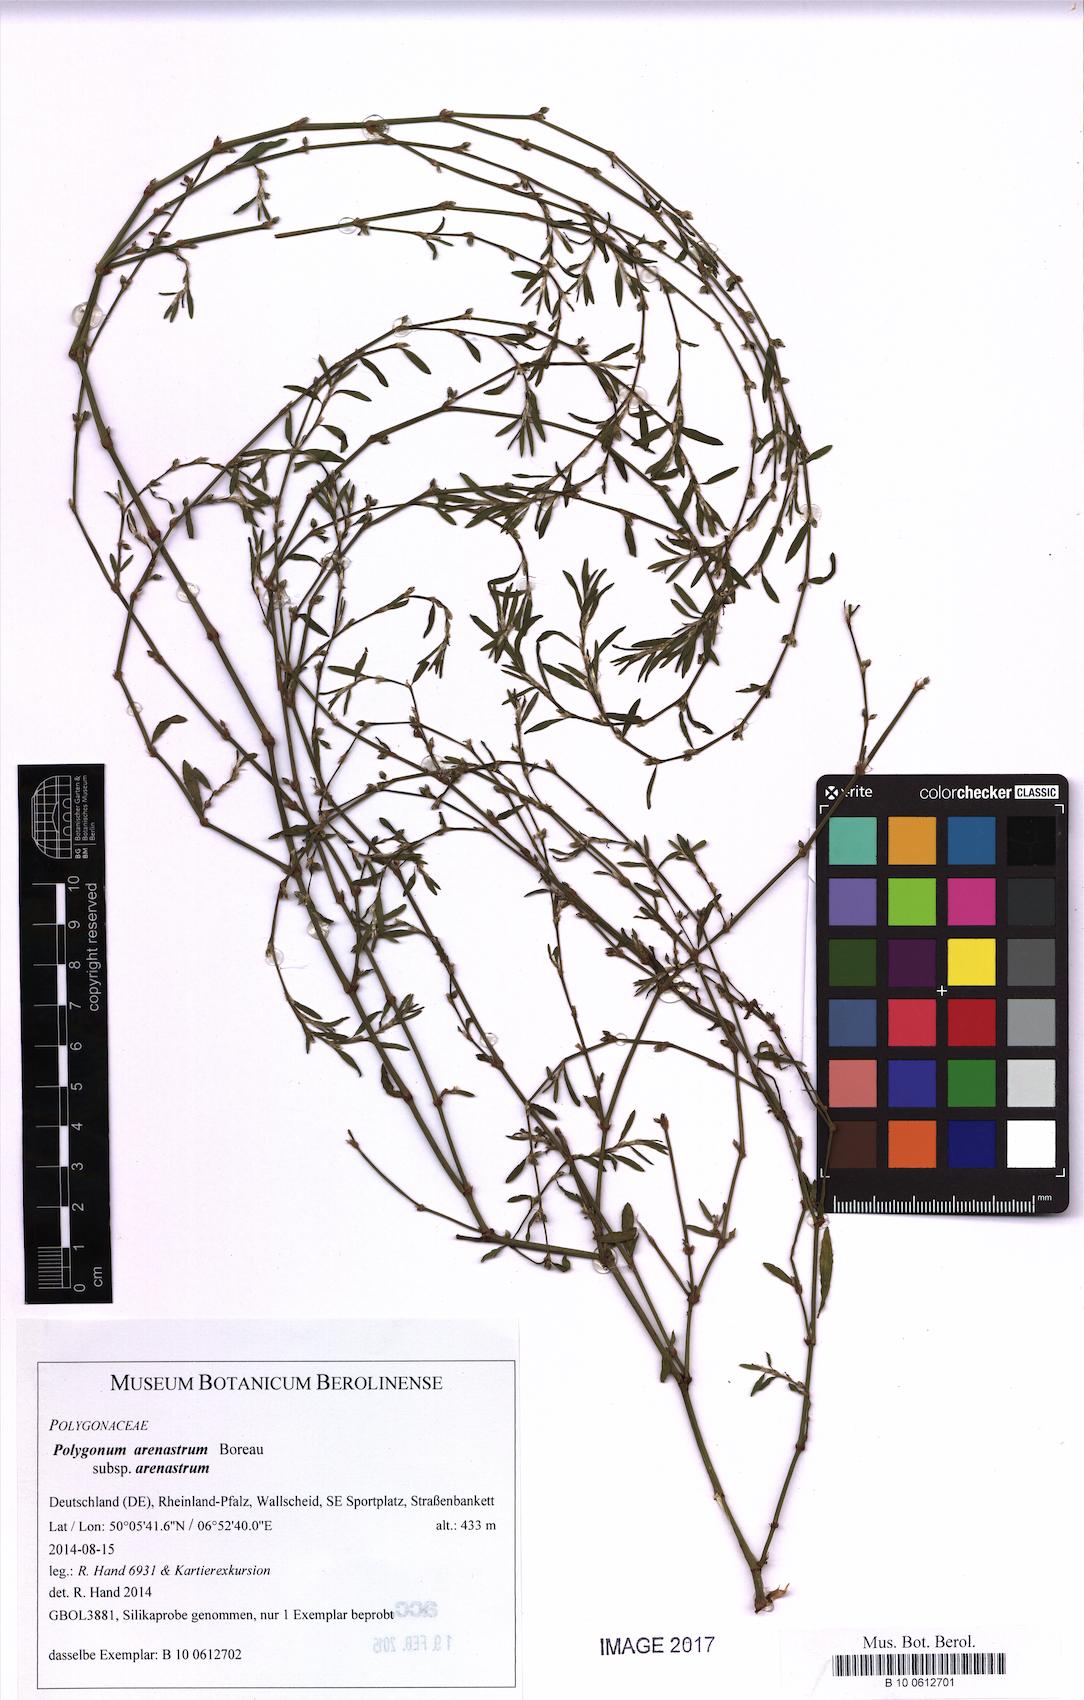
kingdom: Plantae
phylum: Tracheophyta
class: Magnoliopsida
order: Caryophyllales
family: Polygonaceae
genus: Polygonum
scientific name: Polygonum arenastrum
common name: Equal-leaved knotgrass
